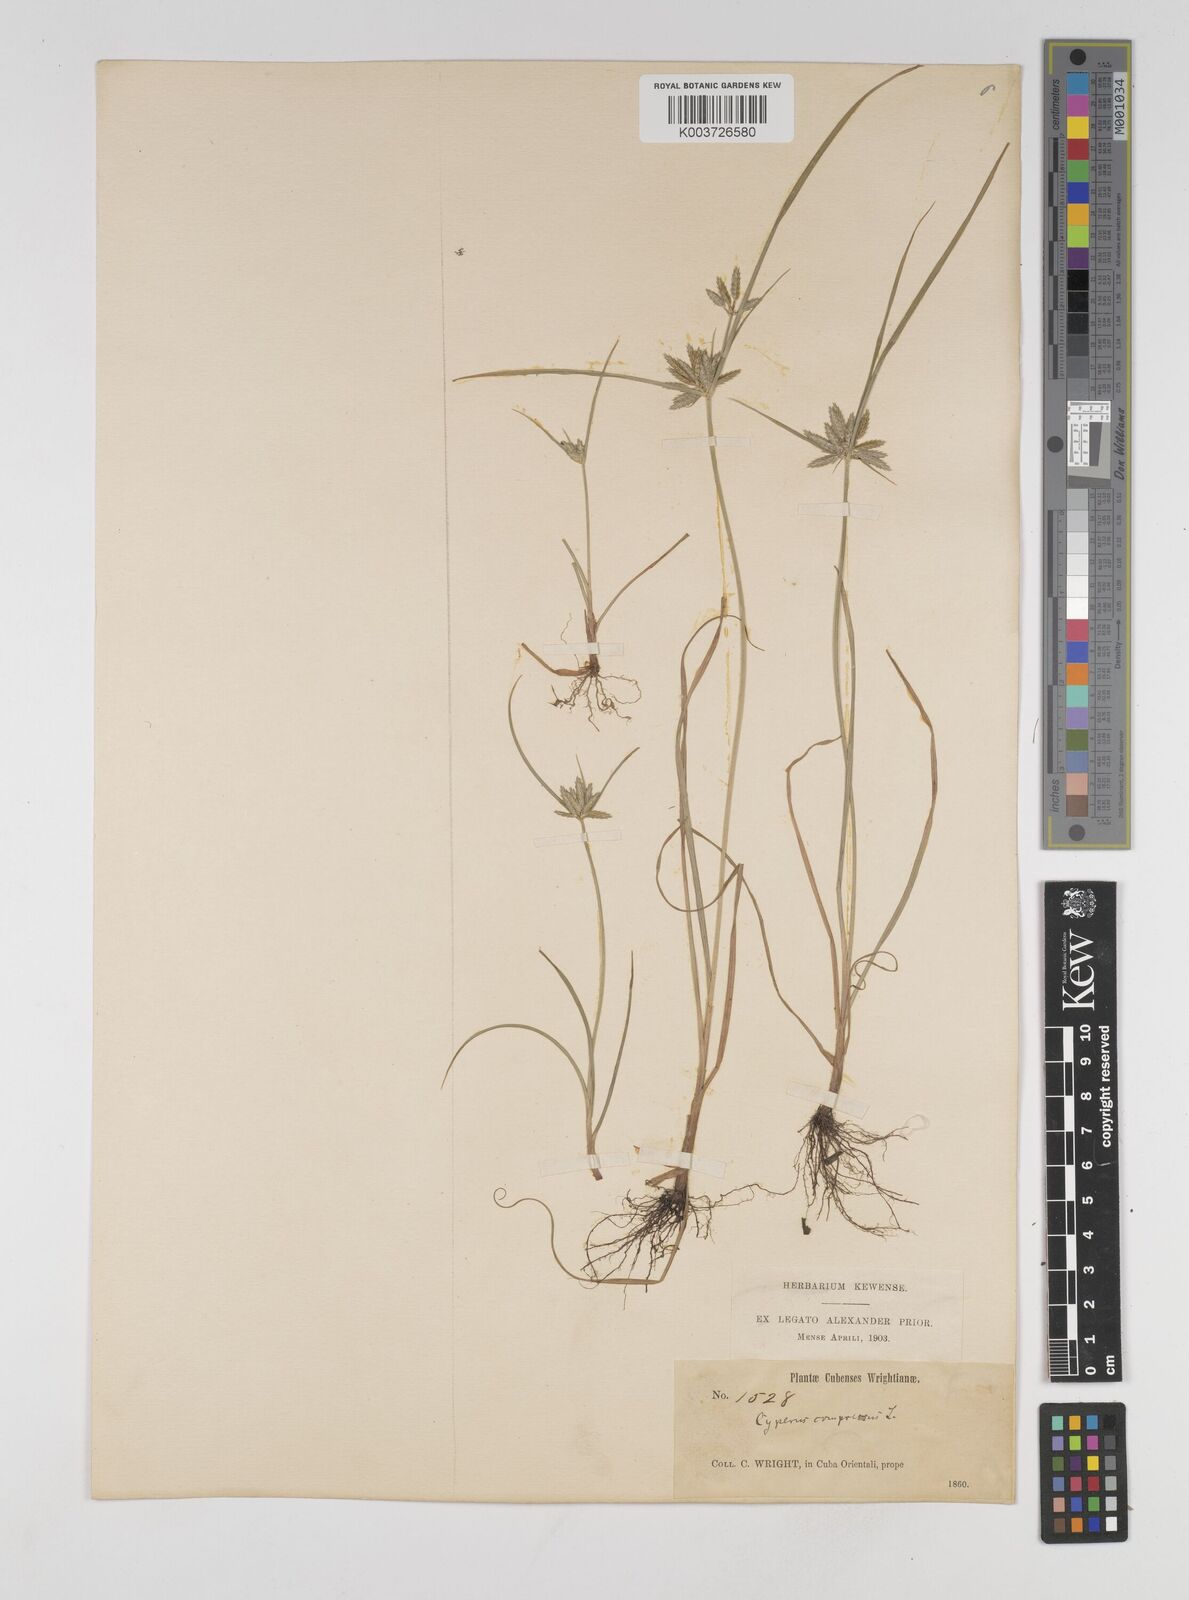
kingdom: Plantae
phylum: Tracheophyta
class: Liliopsida
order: Poales
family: Cyperaceae
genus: Cyperus
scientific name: Cyperus compressus
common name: Poorland flatsedge
